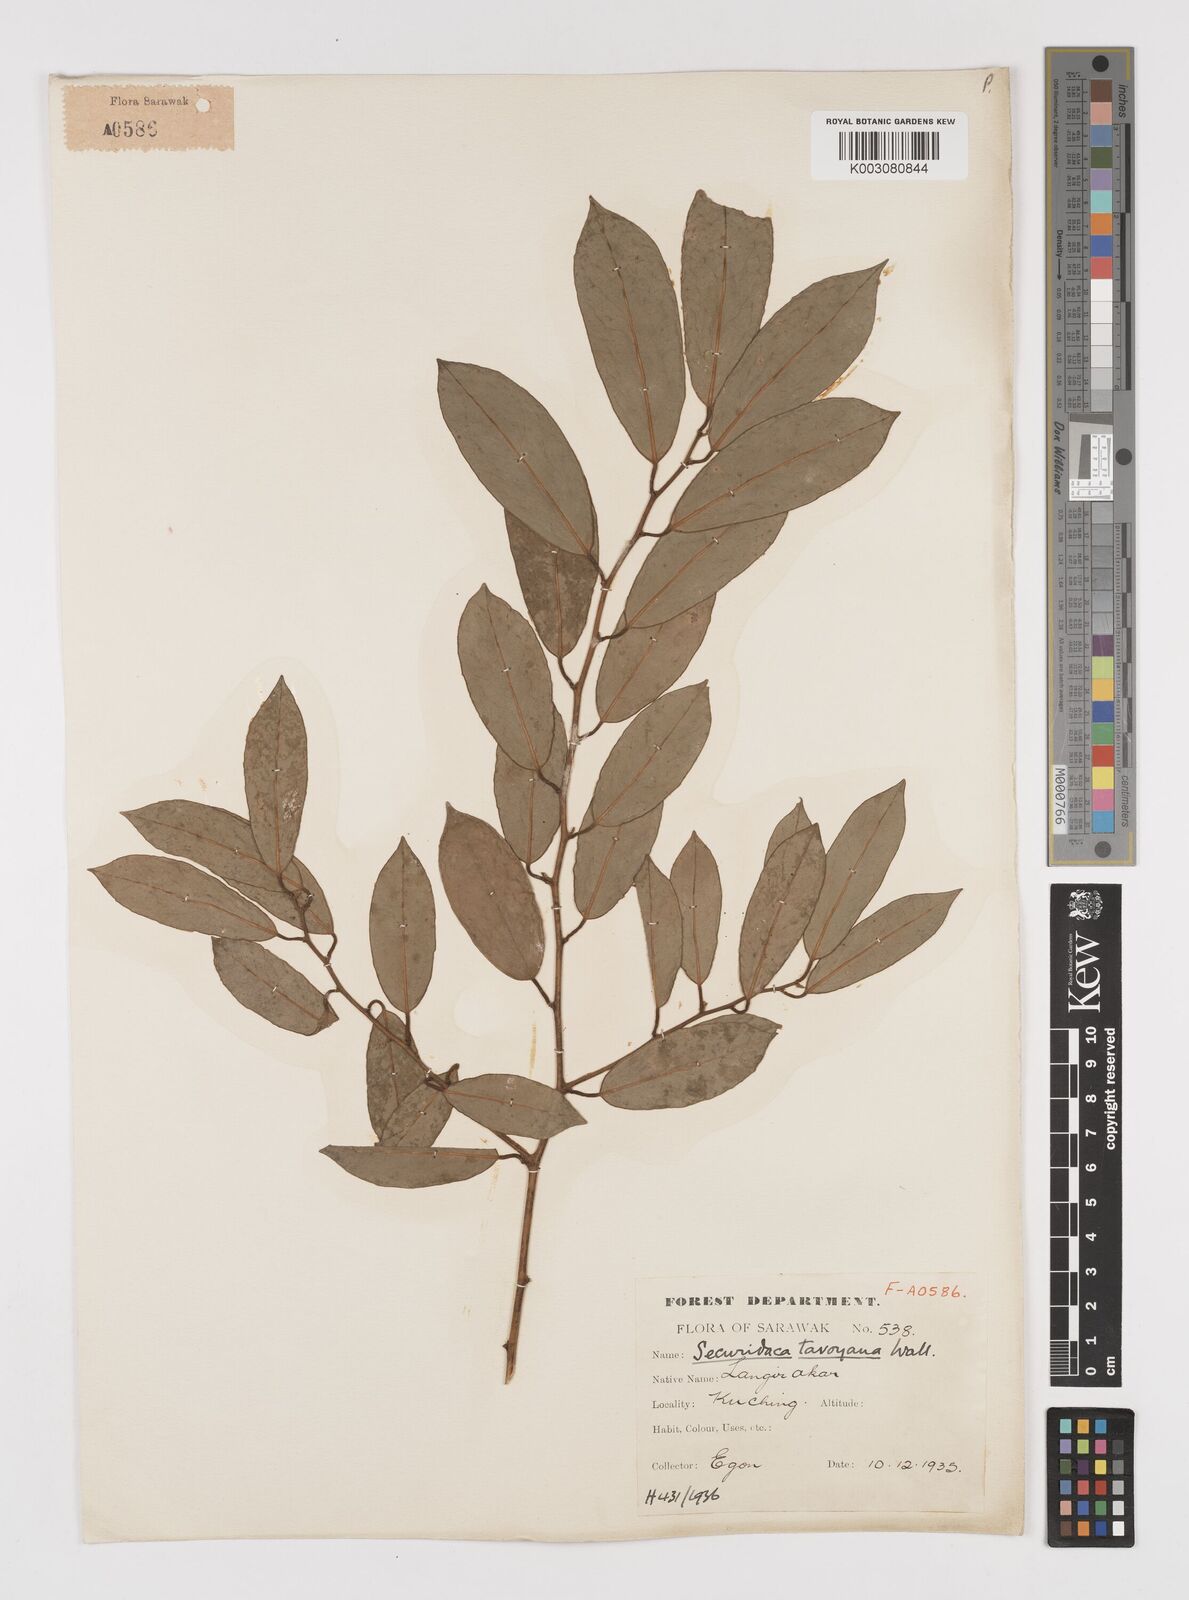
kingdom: Plantae
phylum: Tracheophyta
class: Magnoliopsida
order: Fabales
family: Polygalaceae
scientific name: Polygalaceae
